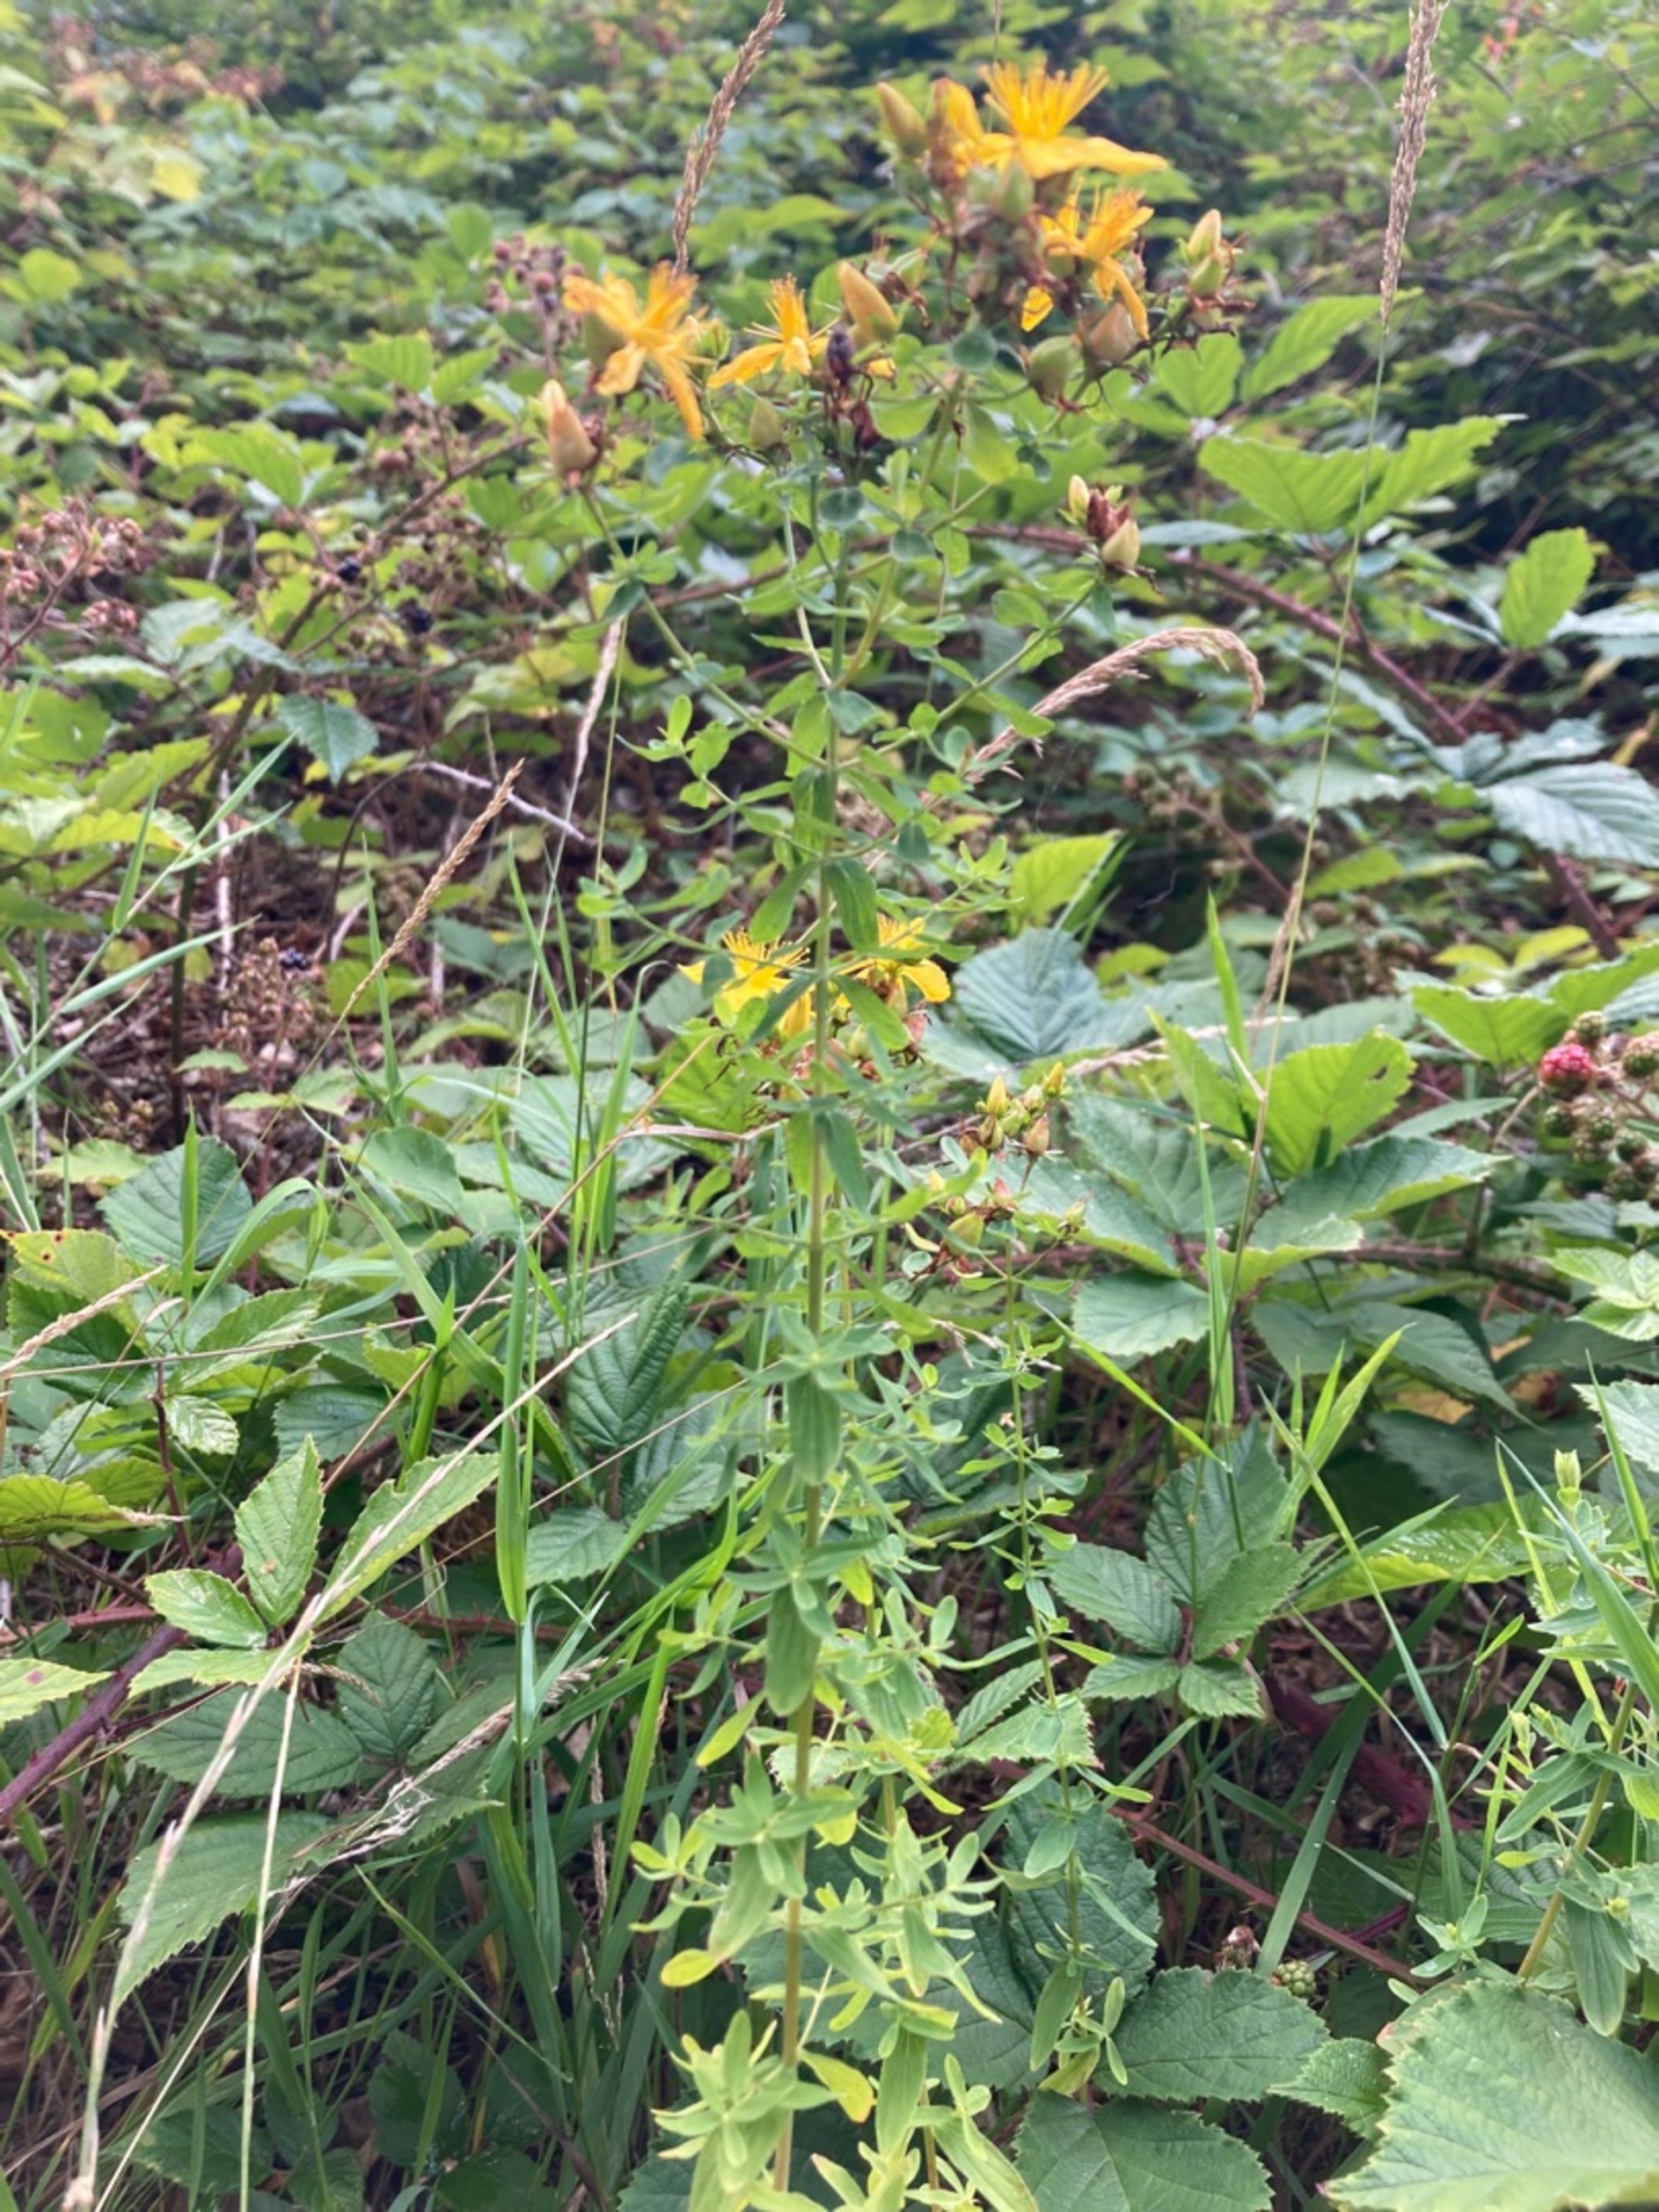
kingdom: Plantae
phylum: Tracheophyta
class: Magnoliopsida
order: Malpighiales
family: Hypericaceae
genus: Hypericum
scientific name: Hypericum perforatum
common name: Prikbladet perikon
